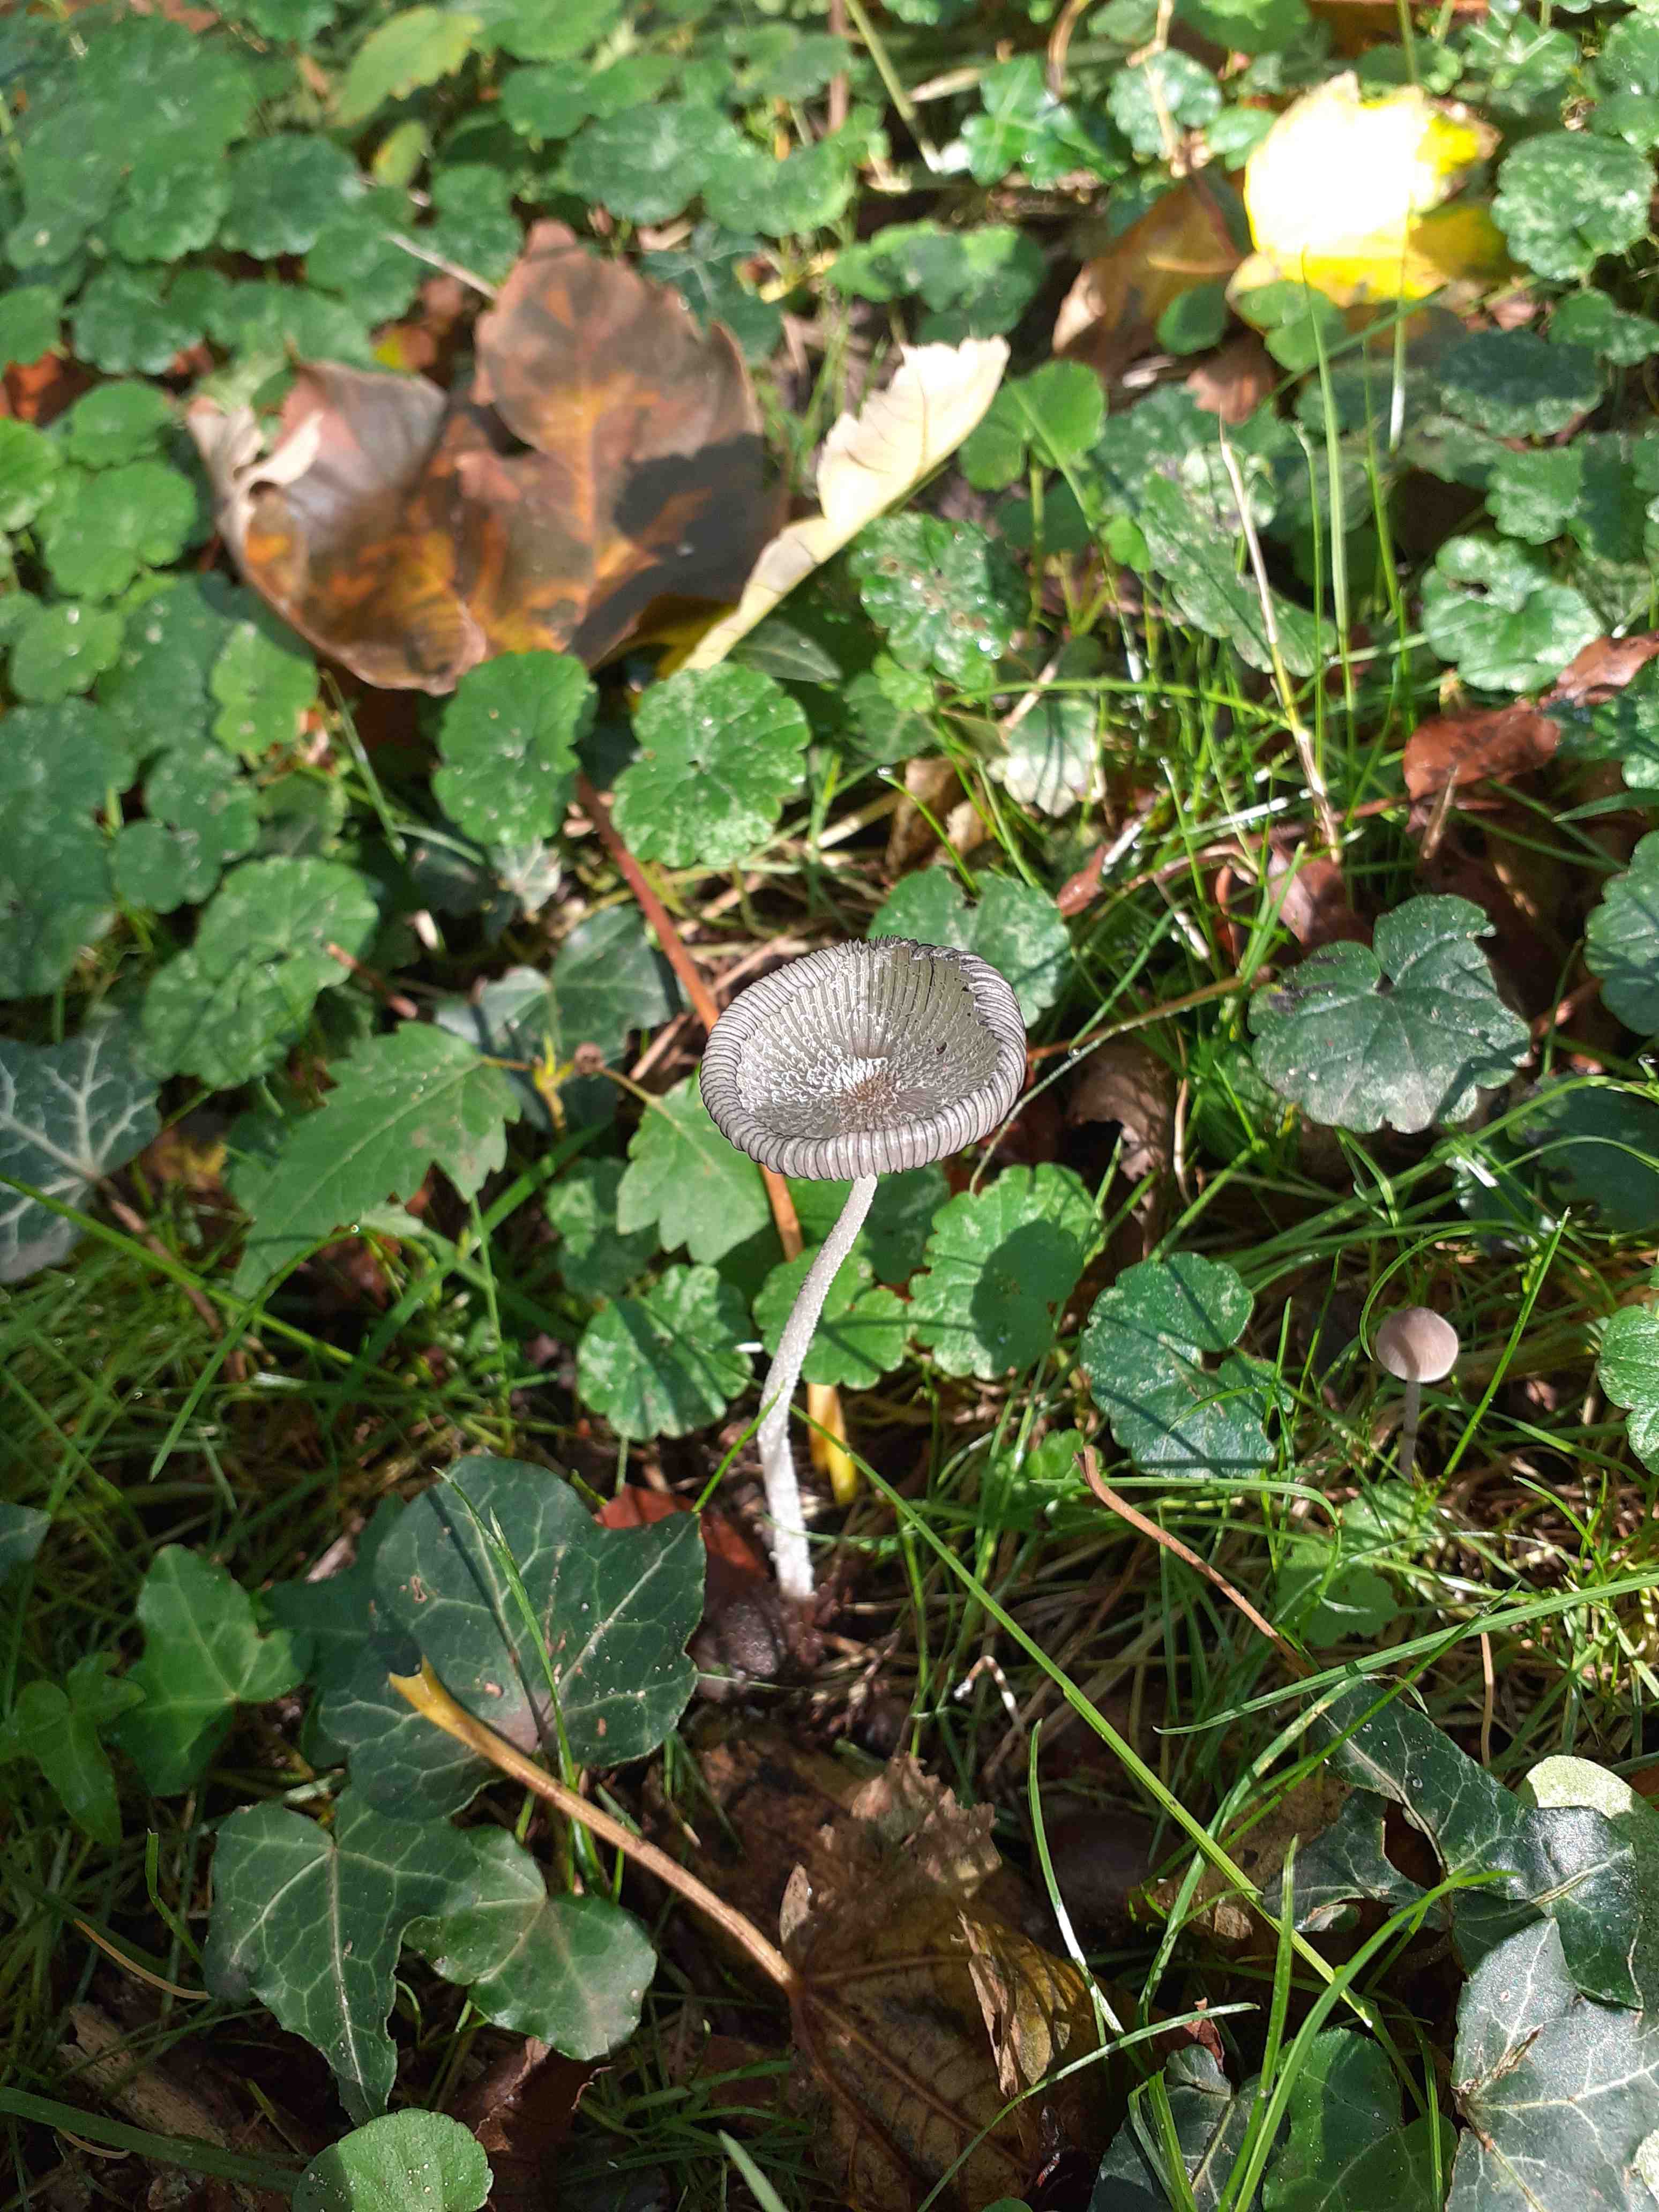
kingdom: Fungi
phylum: Basidiomycota
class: Agaricomycetes
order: Agaricales
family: Psathyrellaceae
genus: Coprinopsis
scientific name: Coprinopsis lagopus
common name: dunstokket blækhat
